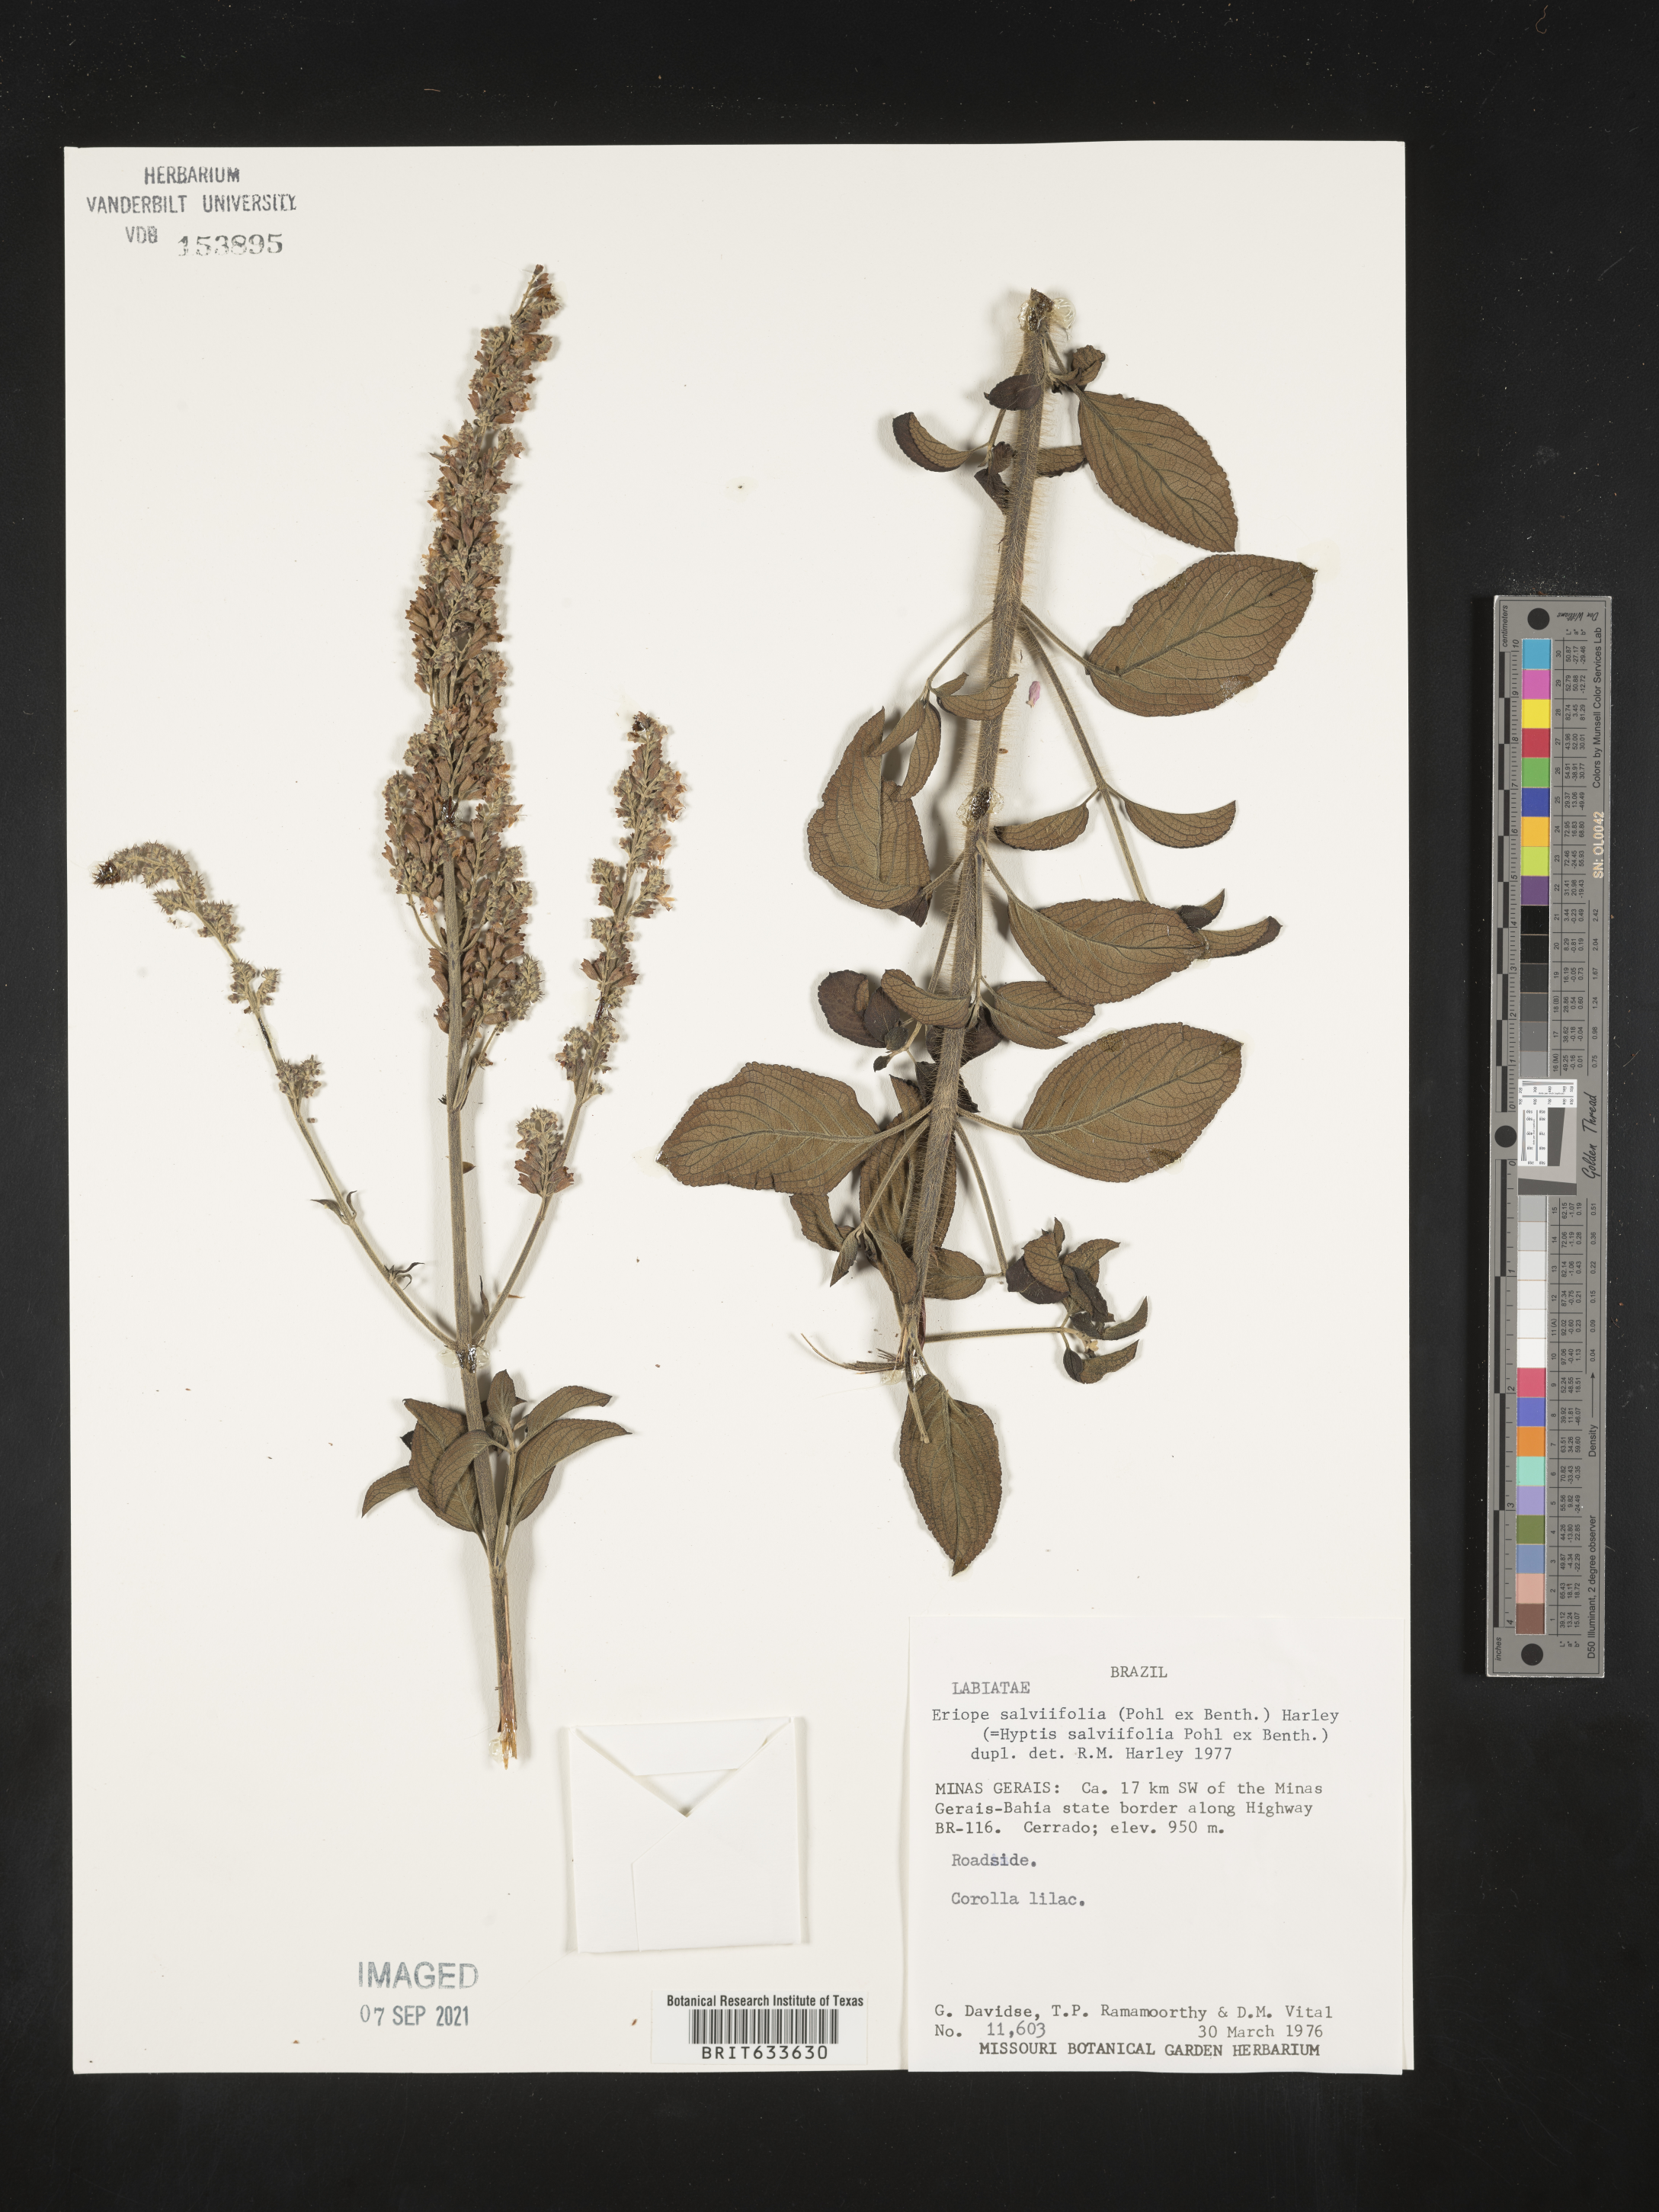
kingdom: Plantae
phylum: Tracheophyta
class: Magnoliopsida
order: Lamiales
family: Lamiaceae
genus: Eriope
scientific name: Eriope
